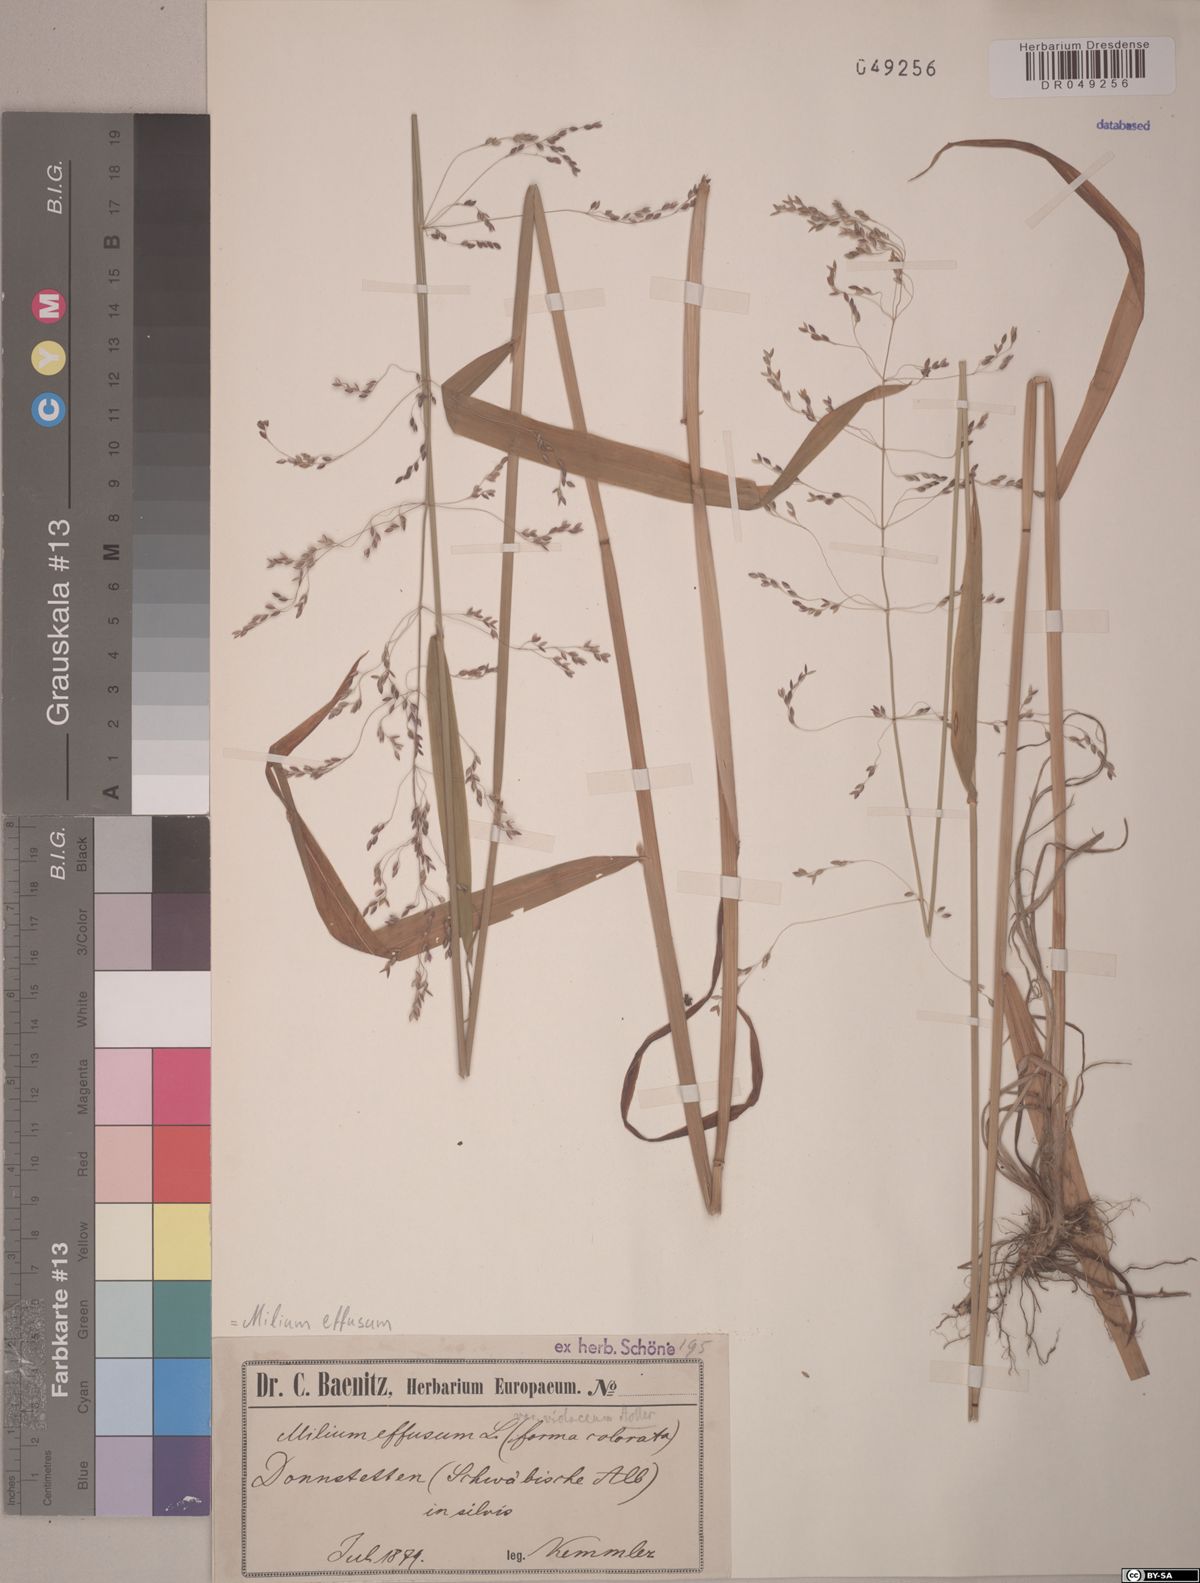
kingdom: Plantae
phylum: Tracheophyta
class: Liliopsida
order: Poales
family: Poaceae
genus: Milium
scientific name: Milium effusum
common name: Wood millet
